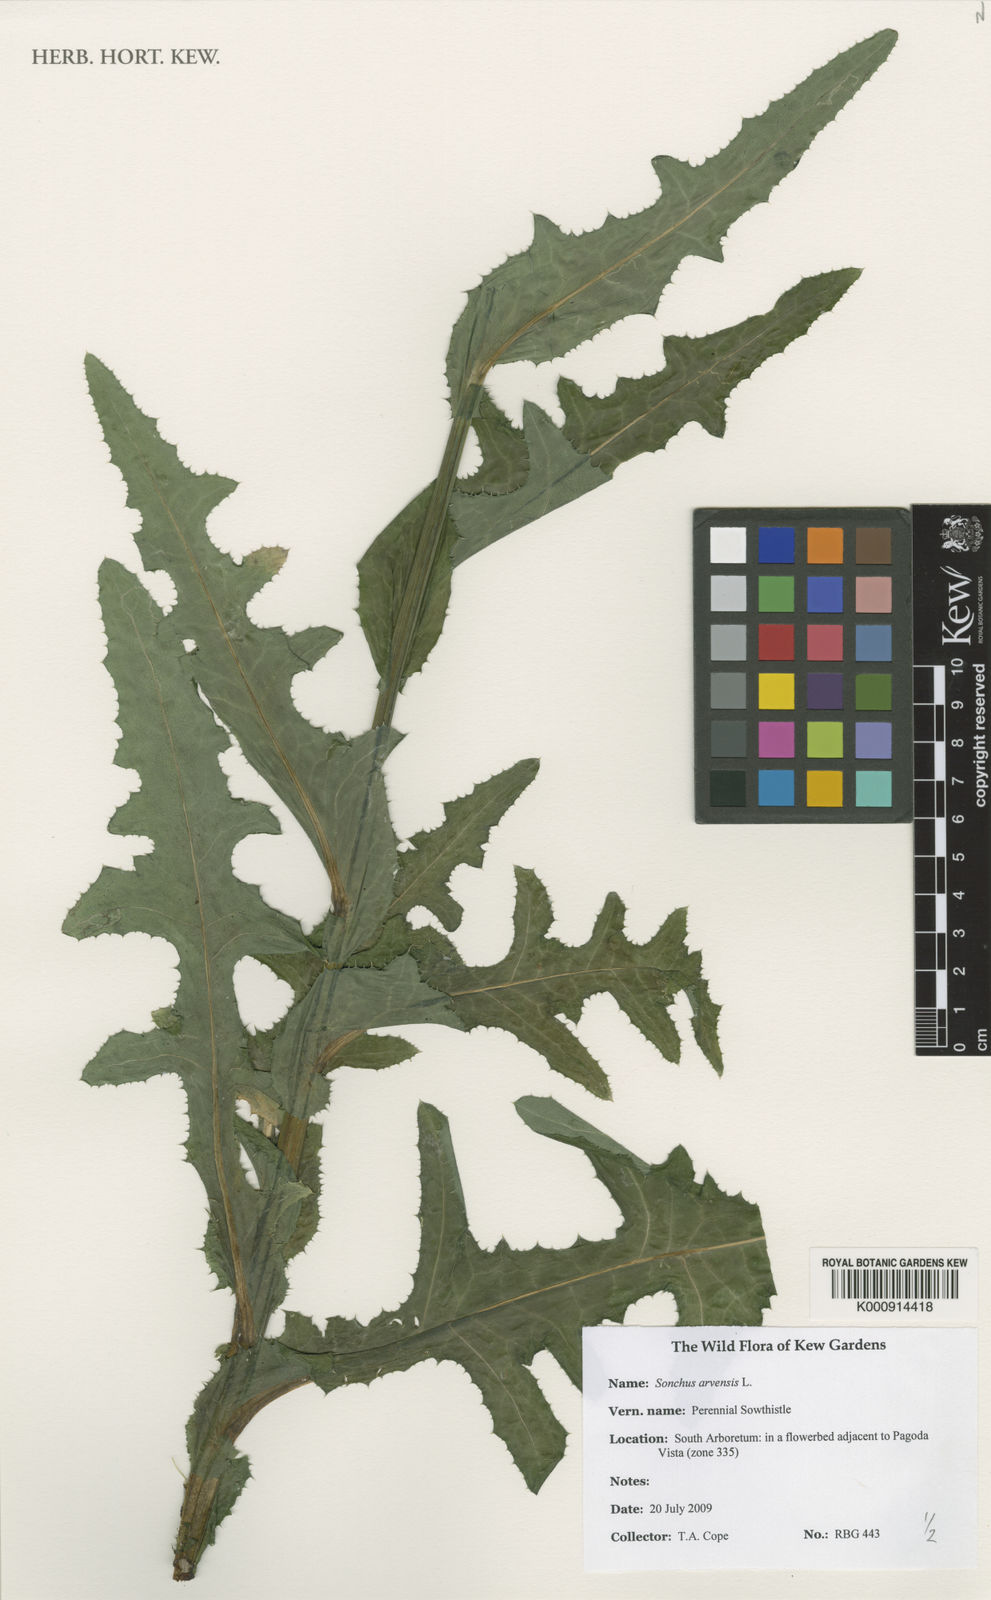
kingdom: Plantae
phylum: Tracheophyta
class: Magnoliopsida
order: Asterales
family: Asteraceae
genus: Sonchus
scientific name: Sonchus arvensis
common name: Perennial sow-thistle
